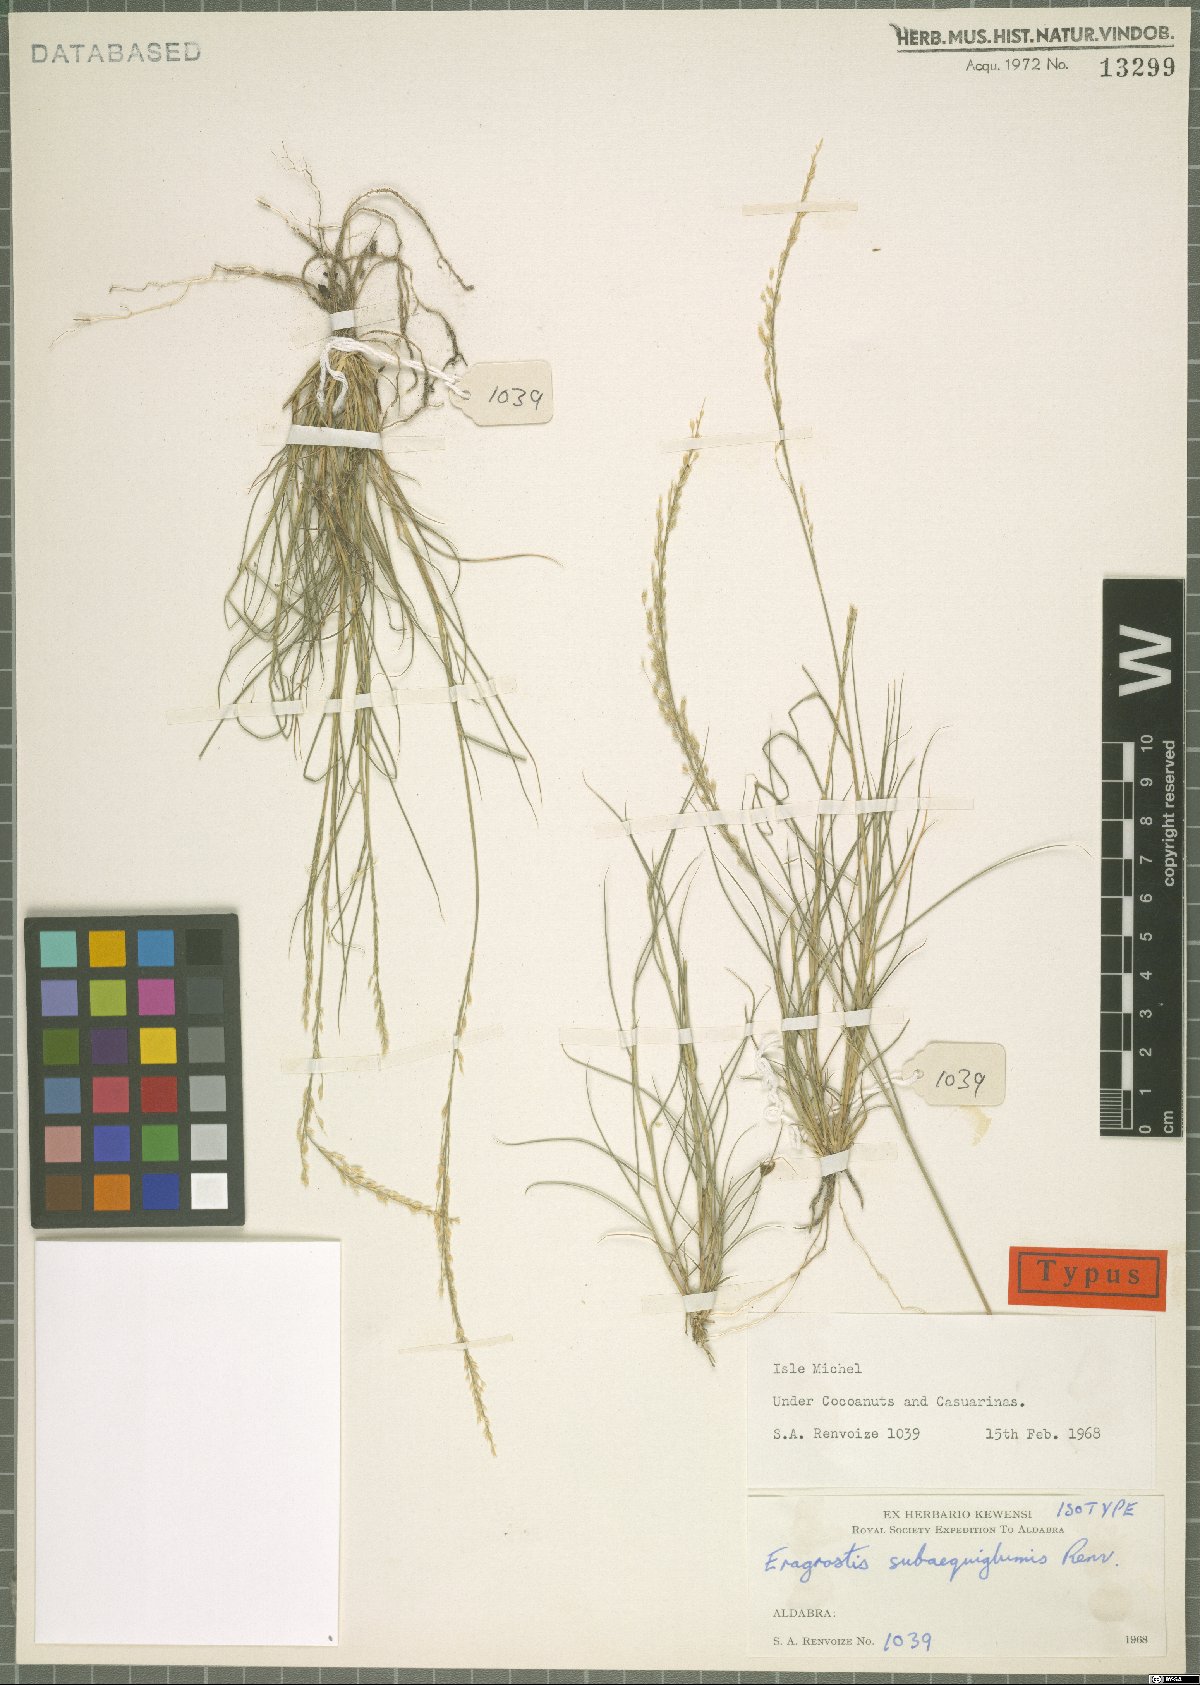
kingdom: Plantae
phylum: Tracheophyta
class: Liliopsida
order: Poales
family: Poaceae
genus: Eragrostis
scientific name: Eragrostis subaequiglumis
